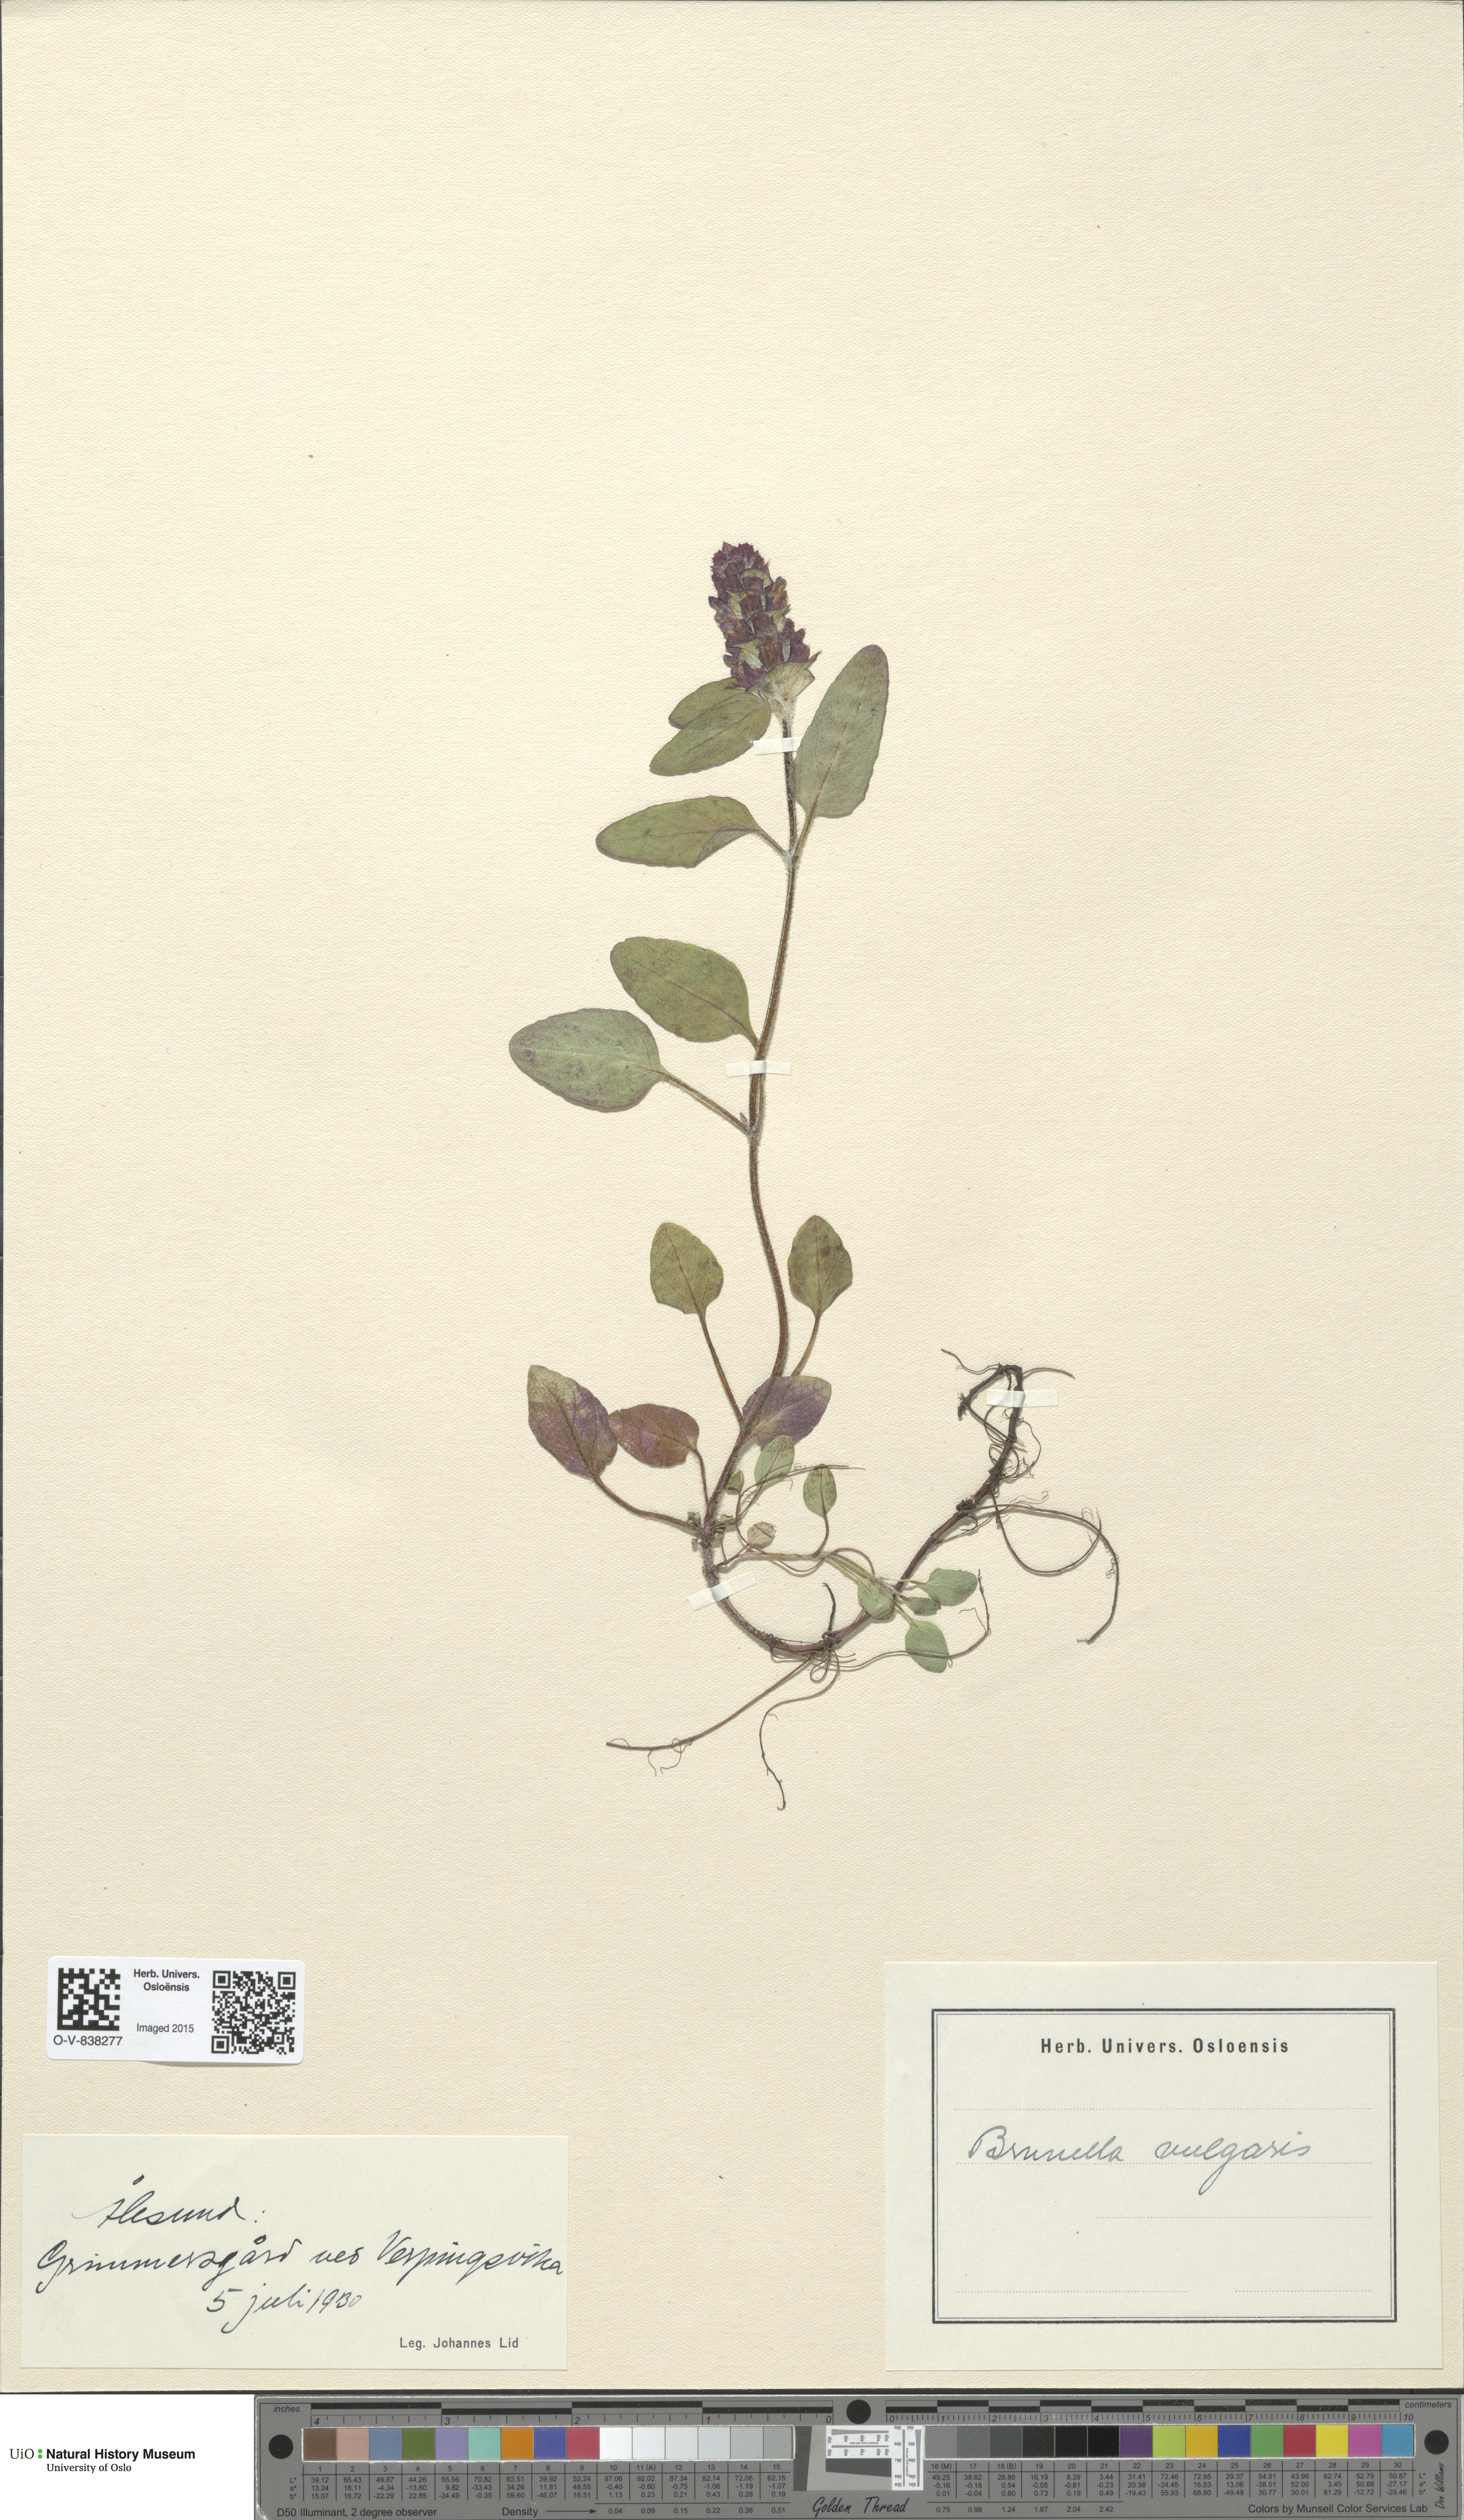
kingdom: Plantae
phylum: Tracheophyta
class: Magnoliopsida
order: Lamiales
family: Lamiaceae
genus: Prunella
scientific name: Prunella vulgaris
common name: Heal-all
